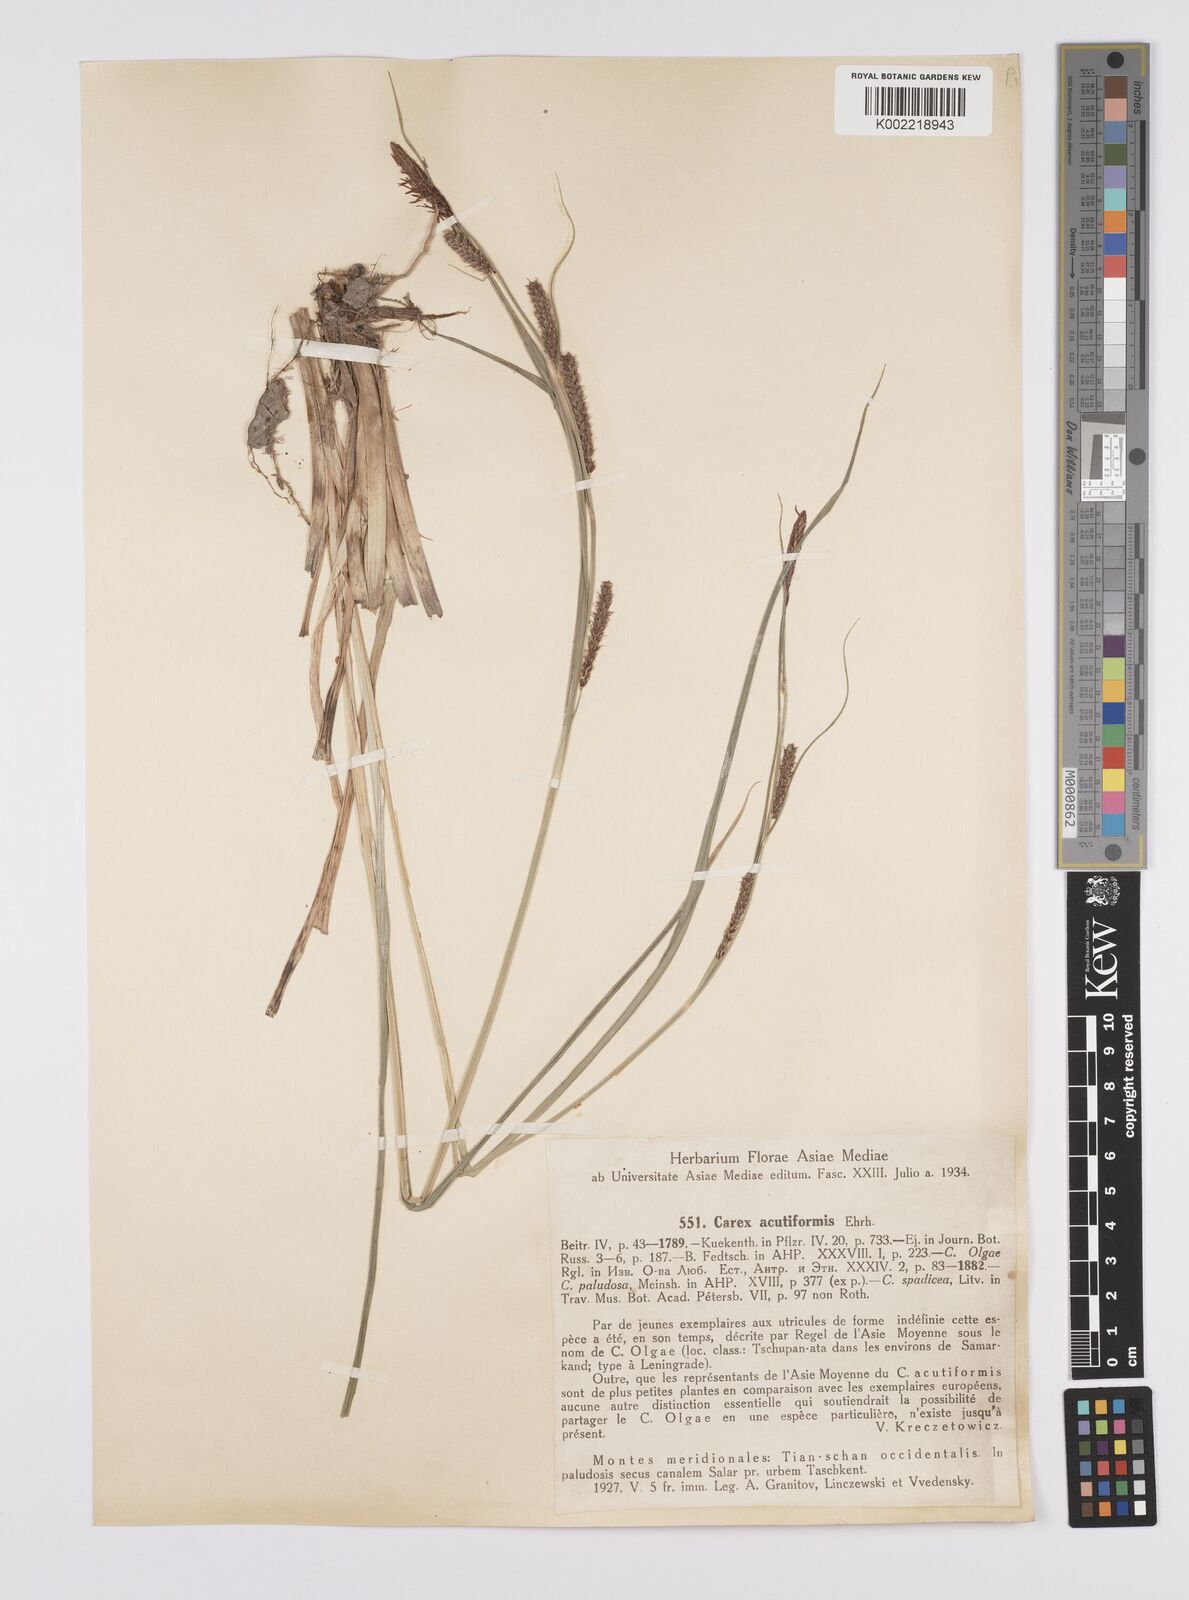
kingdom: Plantae
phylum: Tracheophyta
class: Liliopsida
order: Poales
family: Cyperaceae
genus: Carex
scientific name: Carex acutiformis
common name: Lesser pond-sedge
